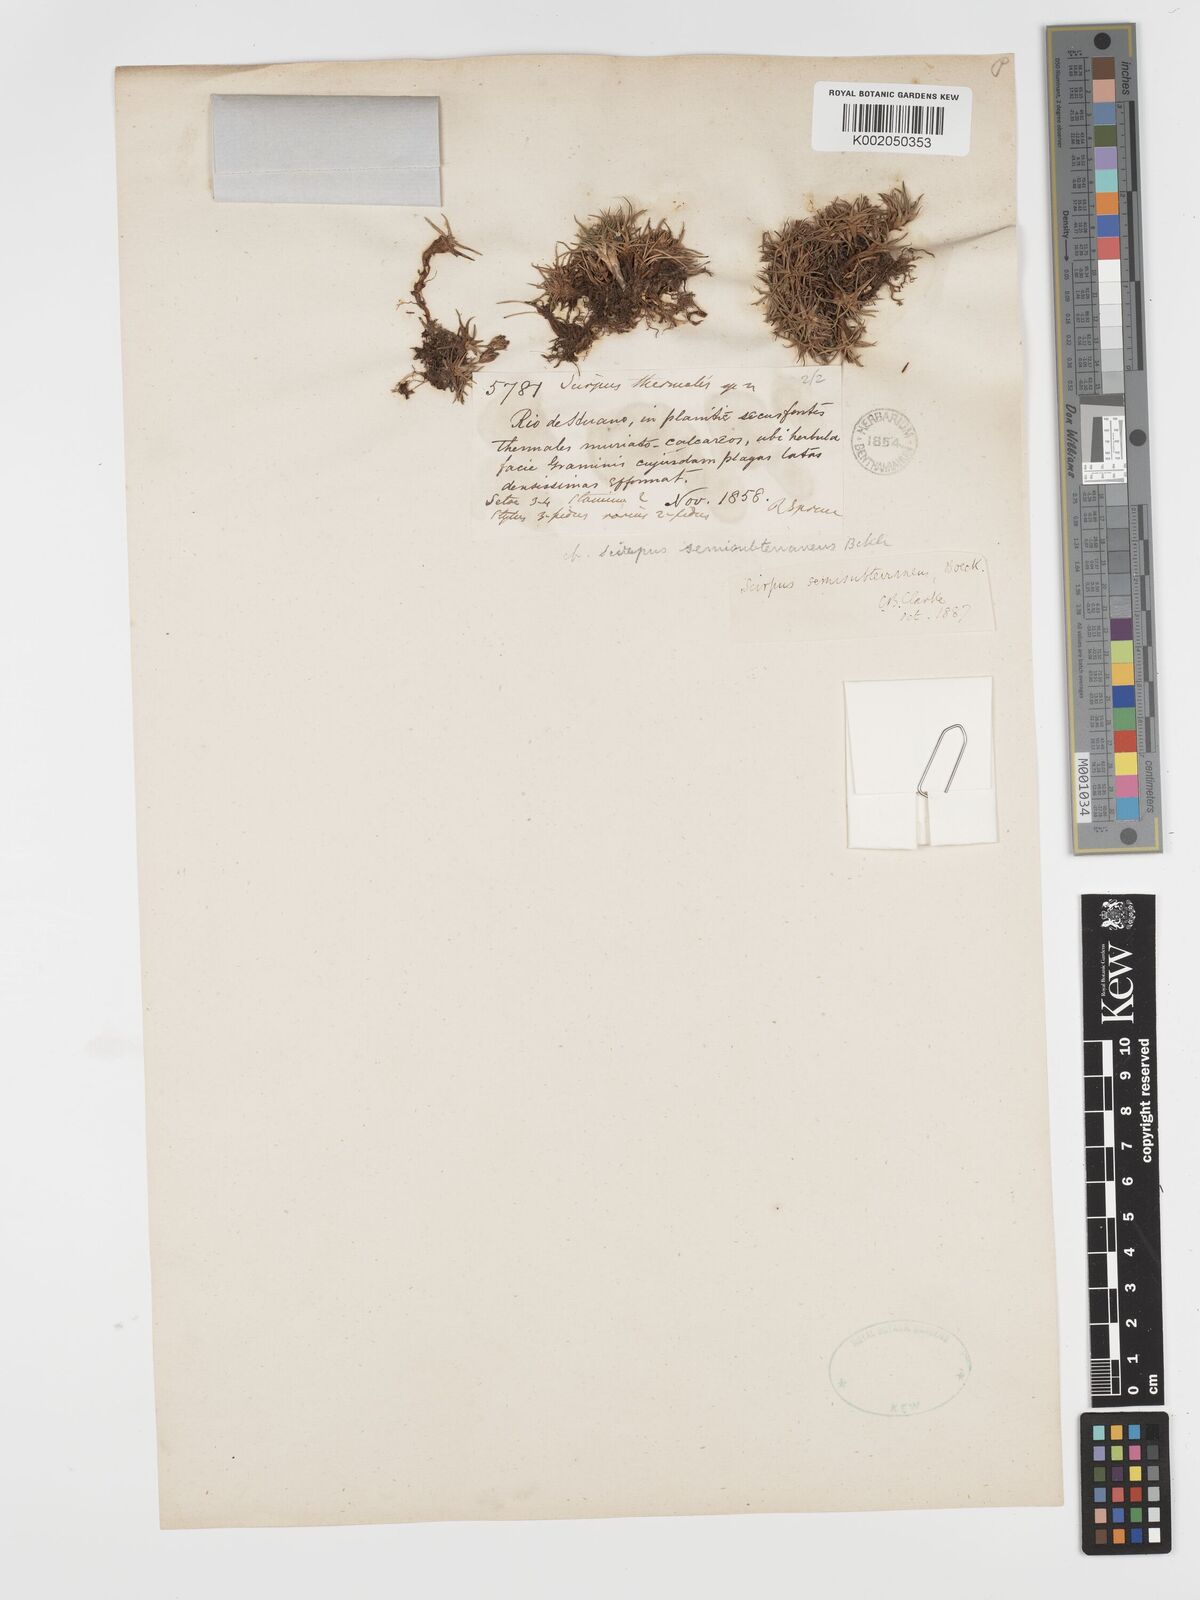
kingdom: Plantae
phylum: Tracheophyta
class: Liliopsida
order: Poales
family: Cyperaceae
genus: Phylloscirpus
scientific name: Phylloscirpus deserticola
